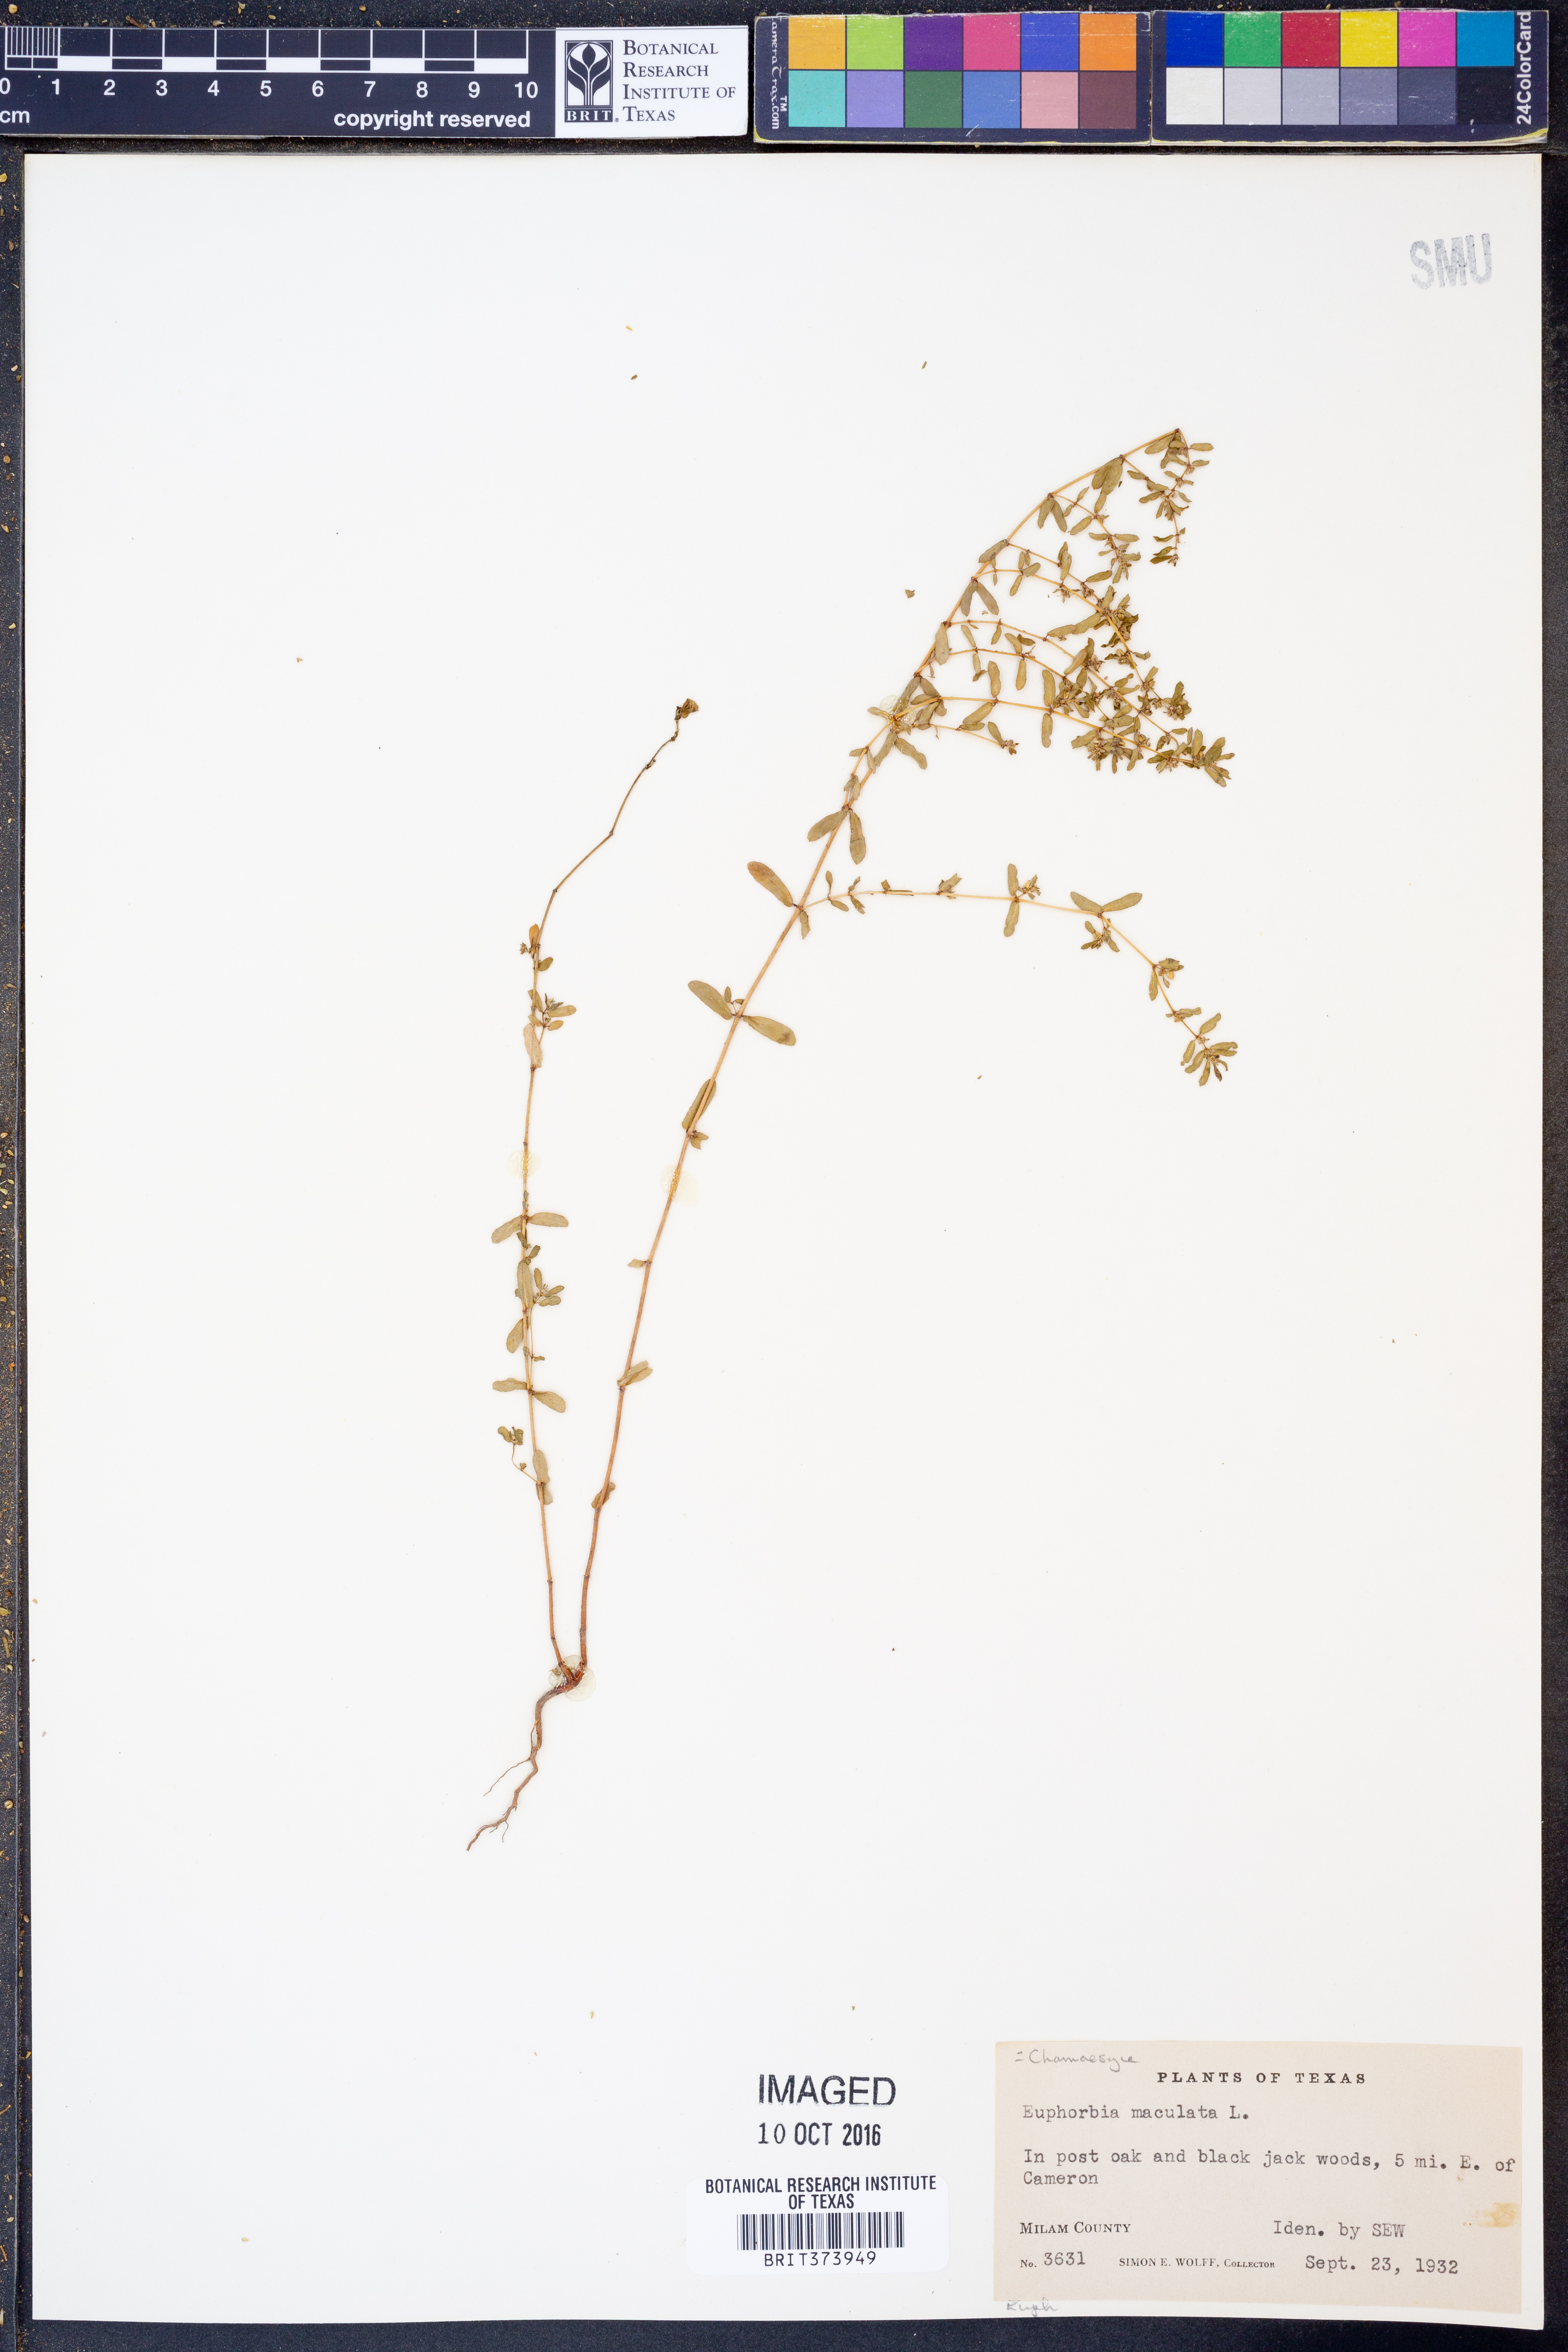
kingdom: Plantae
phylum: Tracheophyta
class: Magnoliopsida
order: Malpighiales
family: Euphorbiaceae
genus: Euphorbia
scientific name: Euphorbia maculata
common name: Spotted spurge
